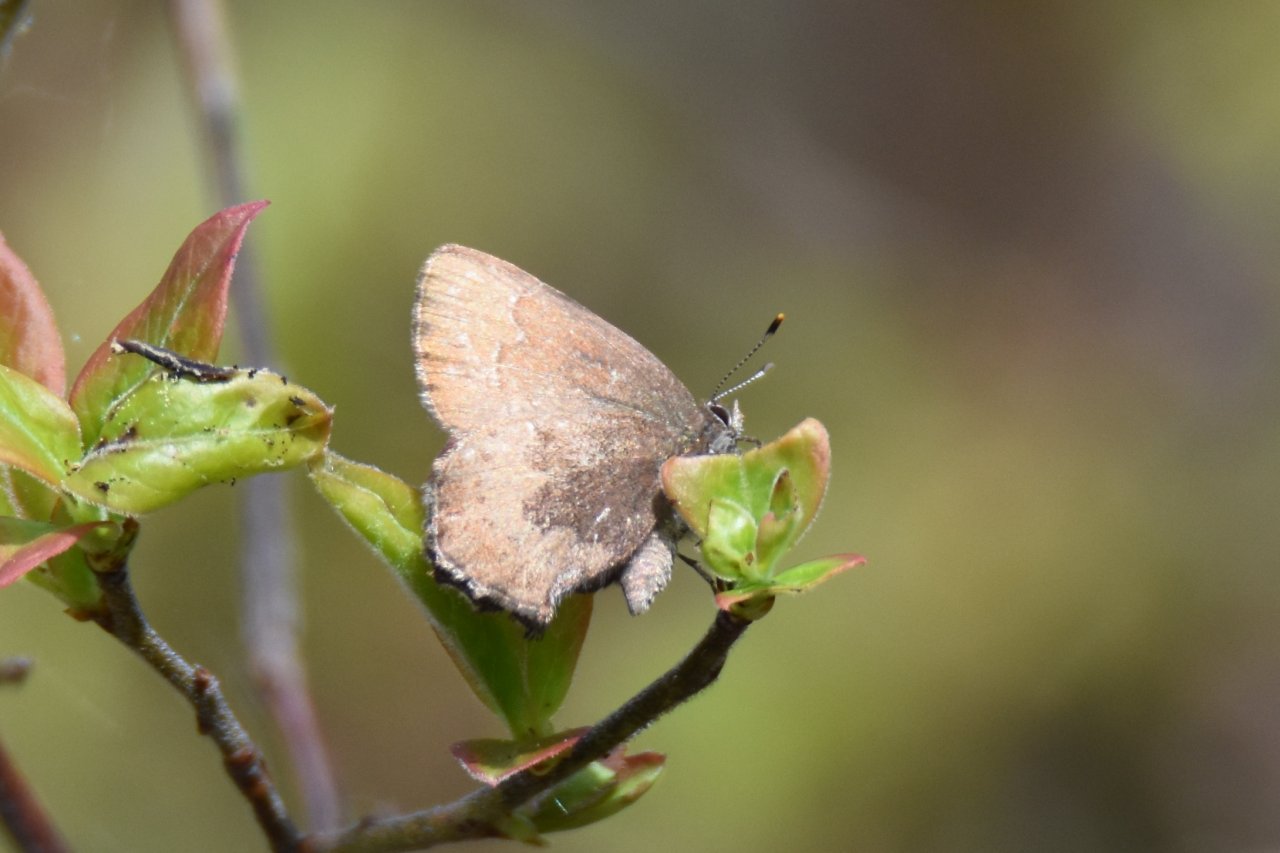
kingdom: Animalia
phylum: Arthropoda
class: Insecta
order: Lepidoptera
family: Lycaenidae
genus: Incisalia
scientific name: Incisalia irioides
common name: Brown Elfin
